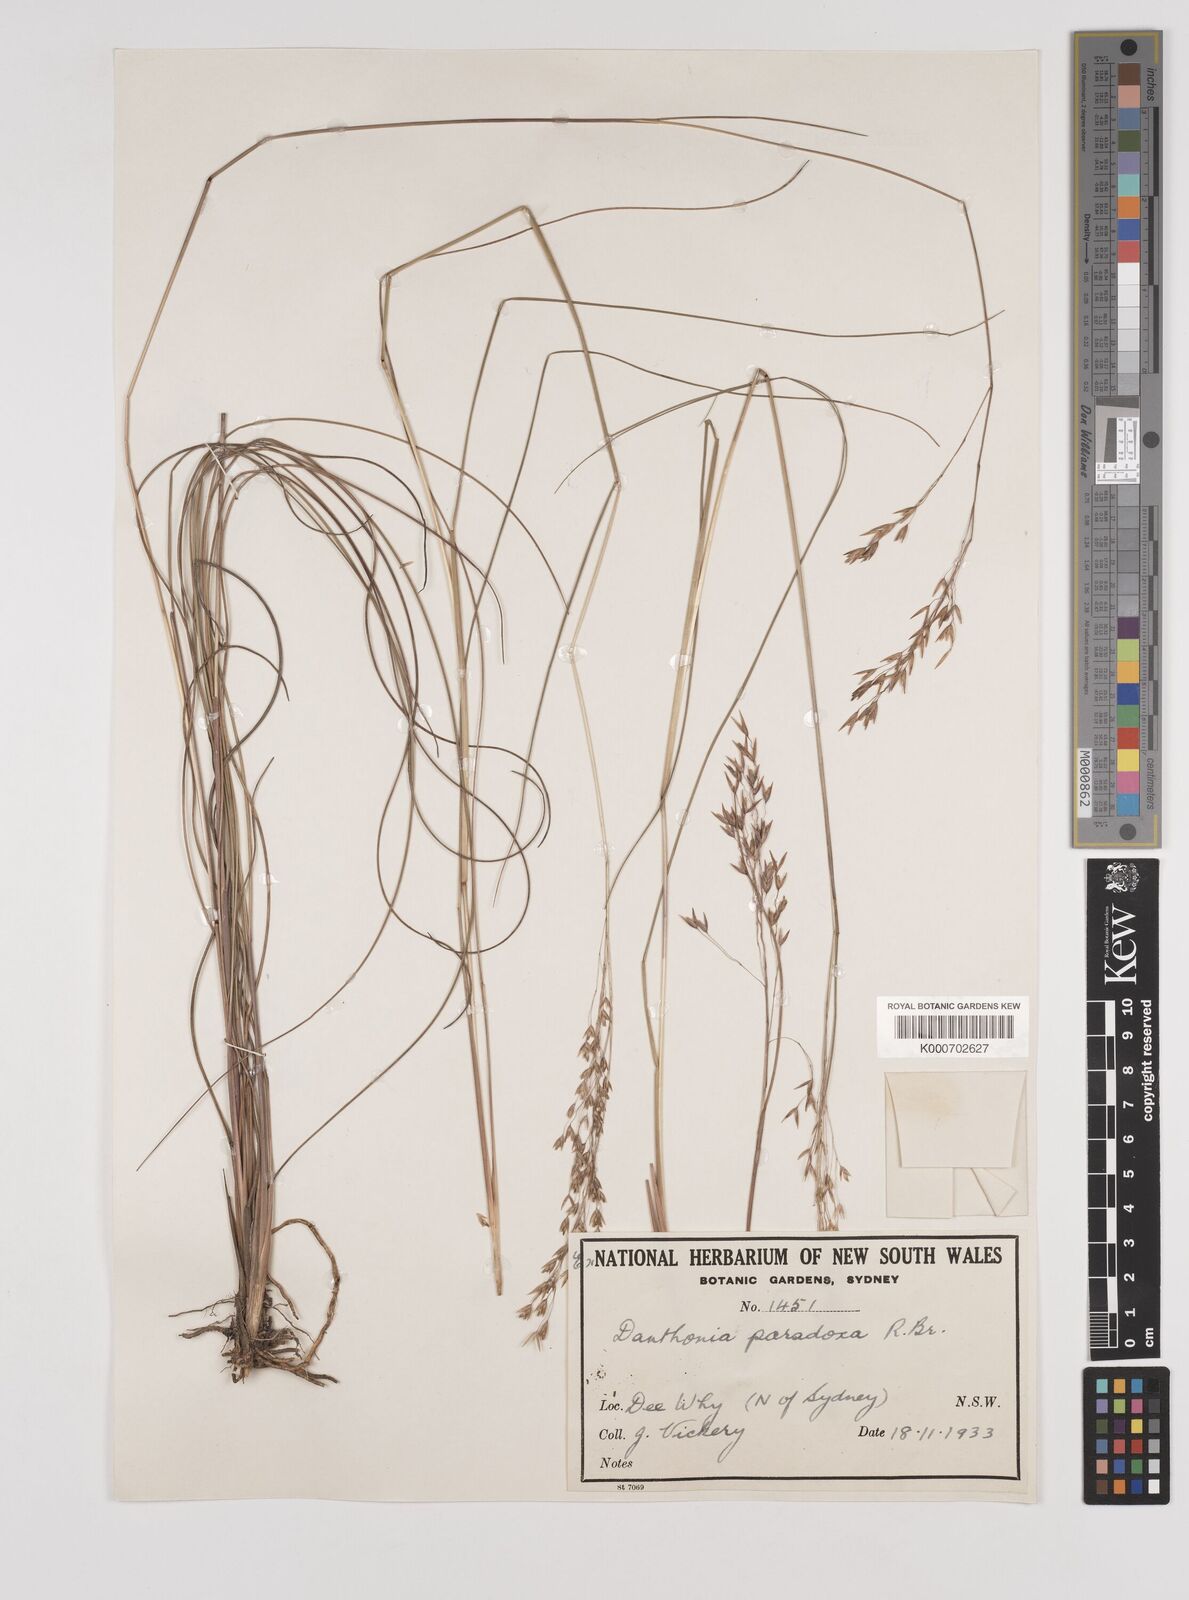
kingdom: Plantae
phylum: Tracheophyta
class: Liliopsida
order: Poales
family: Poaceae
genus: Plinthanthesis
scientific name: Plinthanthesis paradoxa
